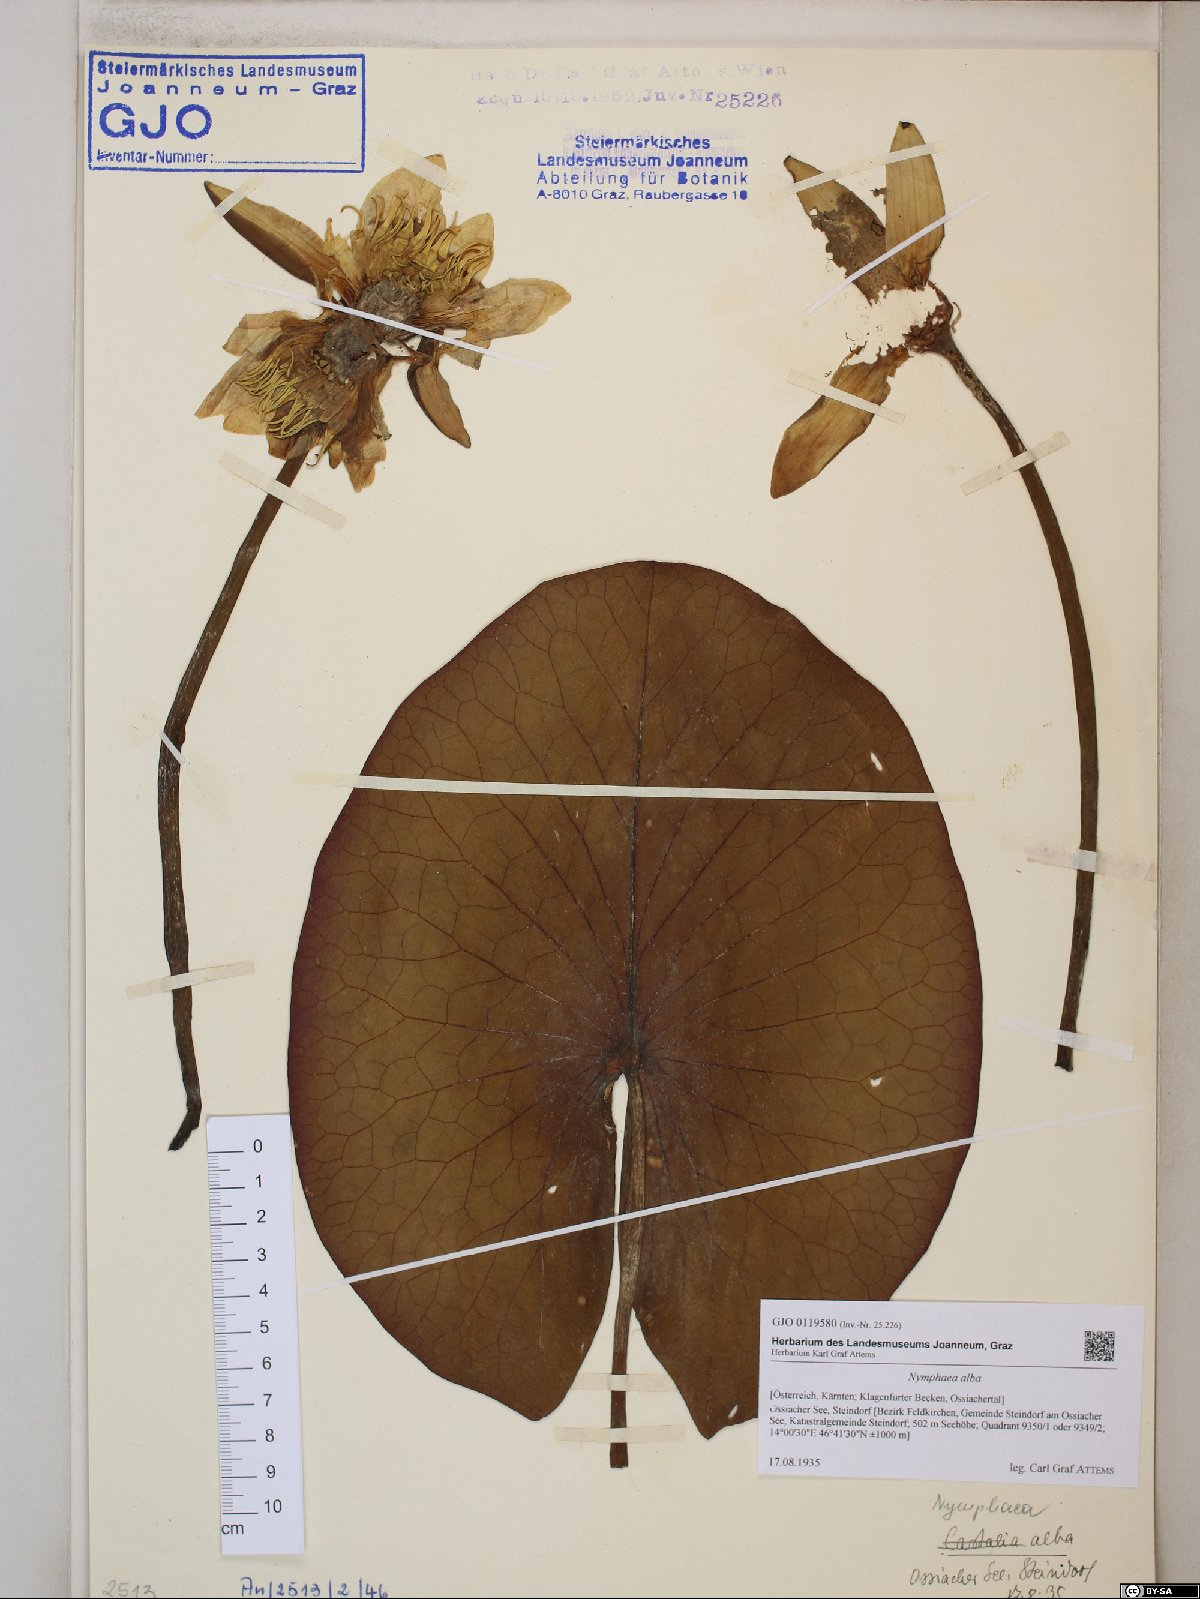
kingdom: Plantae
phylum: Tracheophyta
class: Magnoliopsida
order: Nymphaeales
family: Nymphaeaceae
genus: Nymphaea
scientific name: Nymphaea alba
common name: White water-lily
